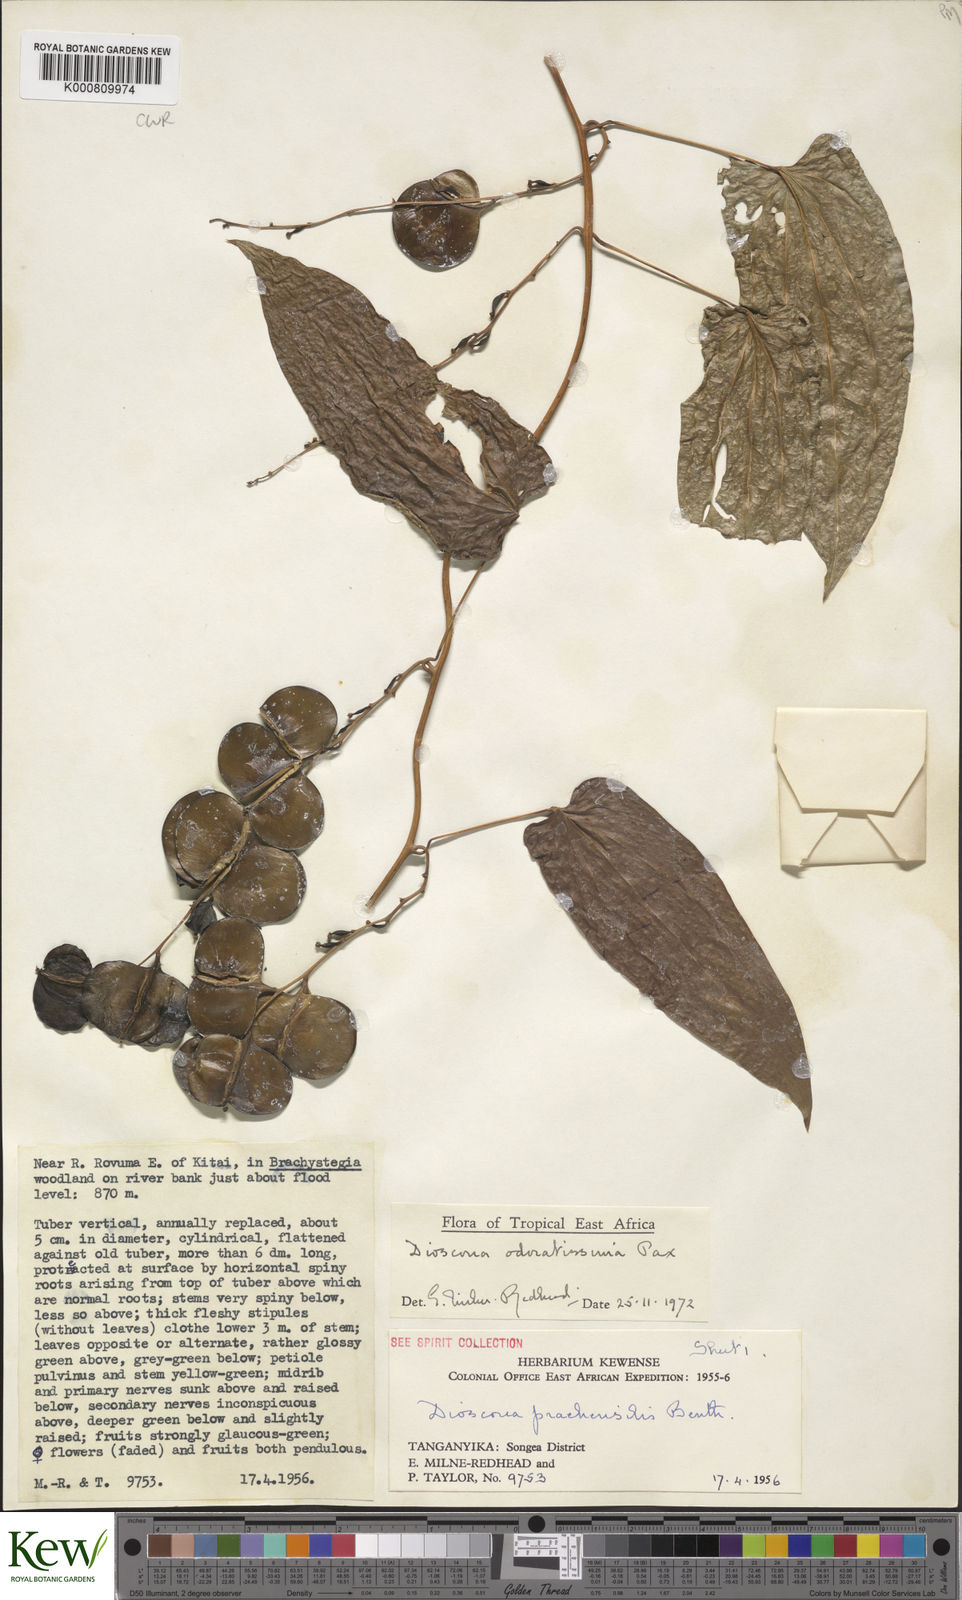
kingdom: Plantae
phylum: Tracheophyta
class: Liliopsida
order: Dioscoreales
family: Dioscoreaceae
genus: Dioscorea
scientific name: Dioscorea praehensilis
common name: Bush yam
